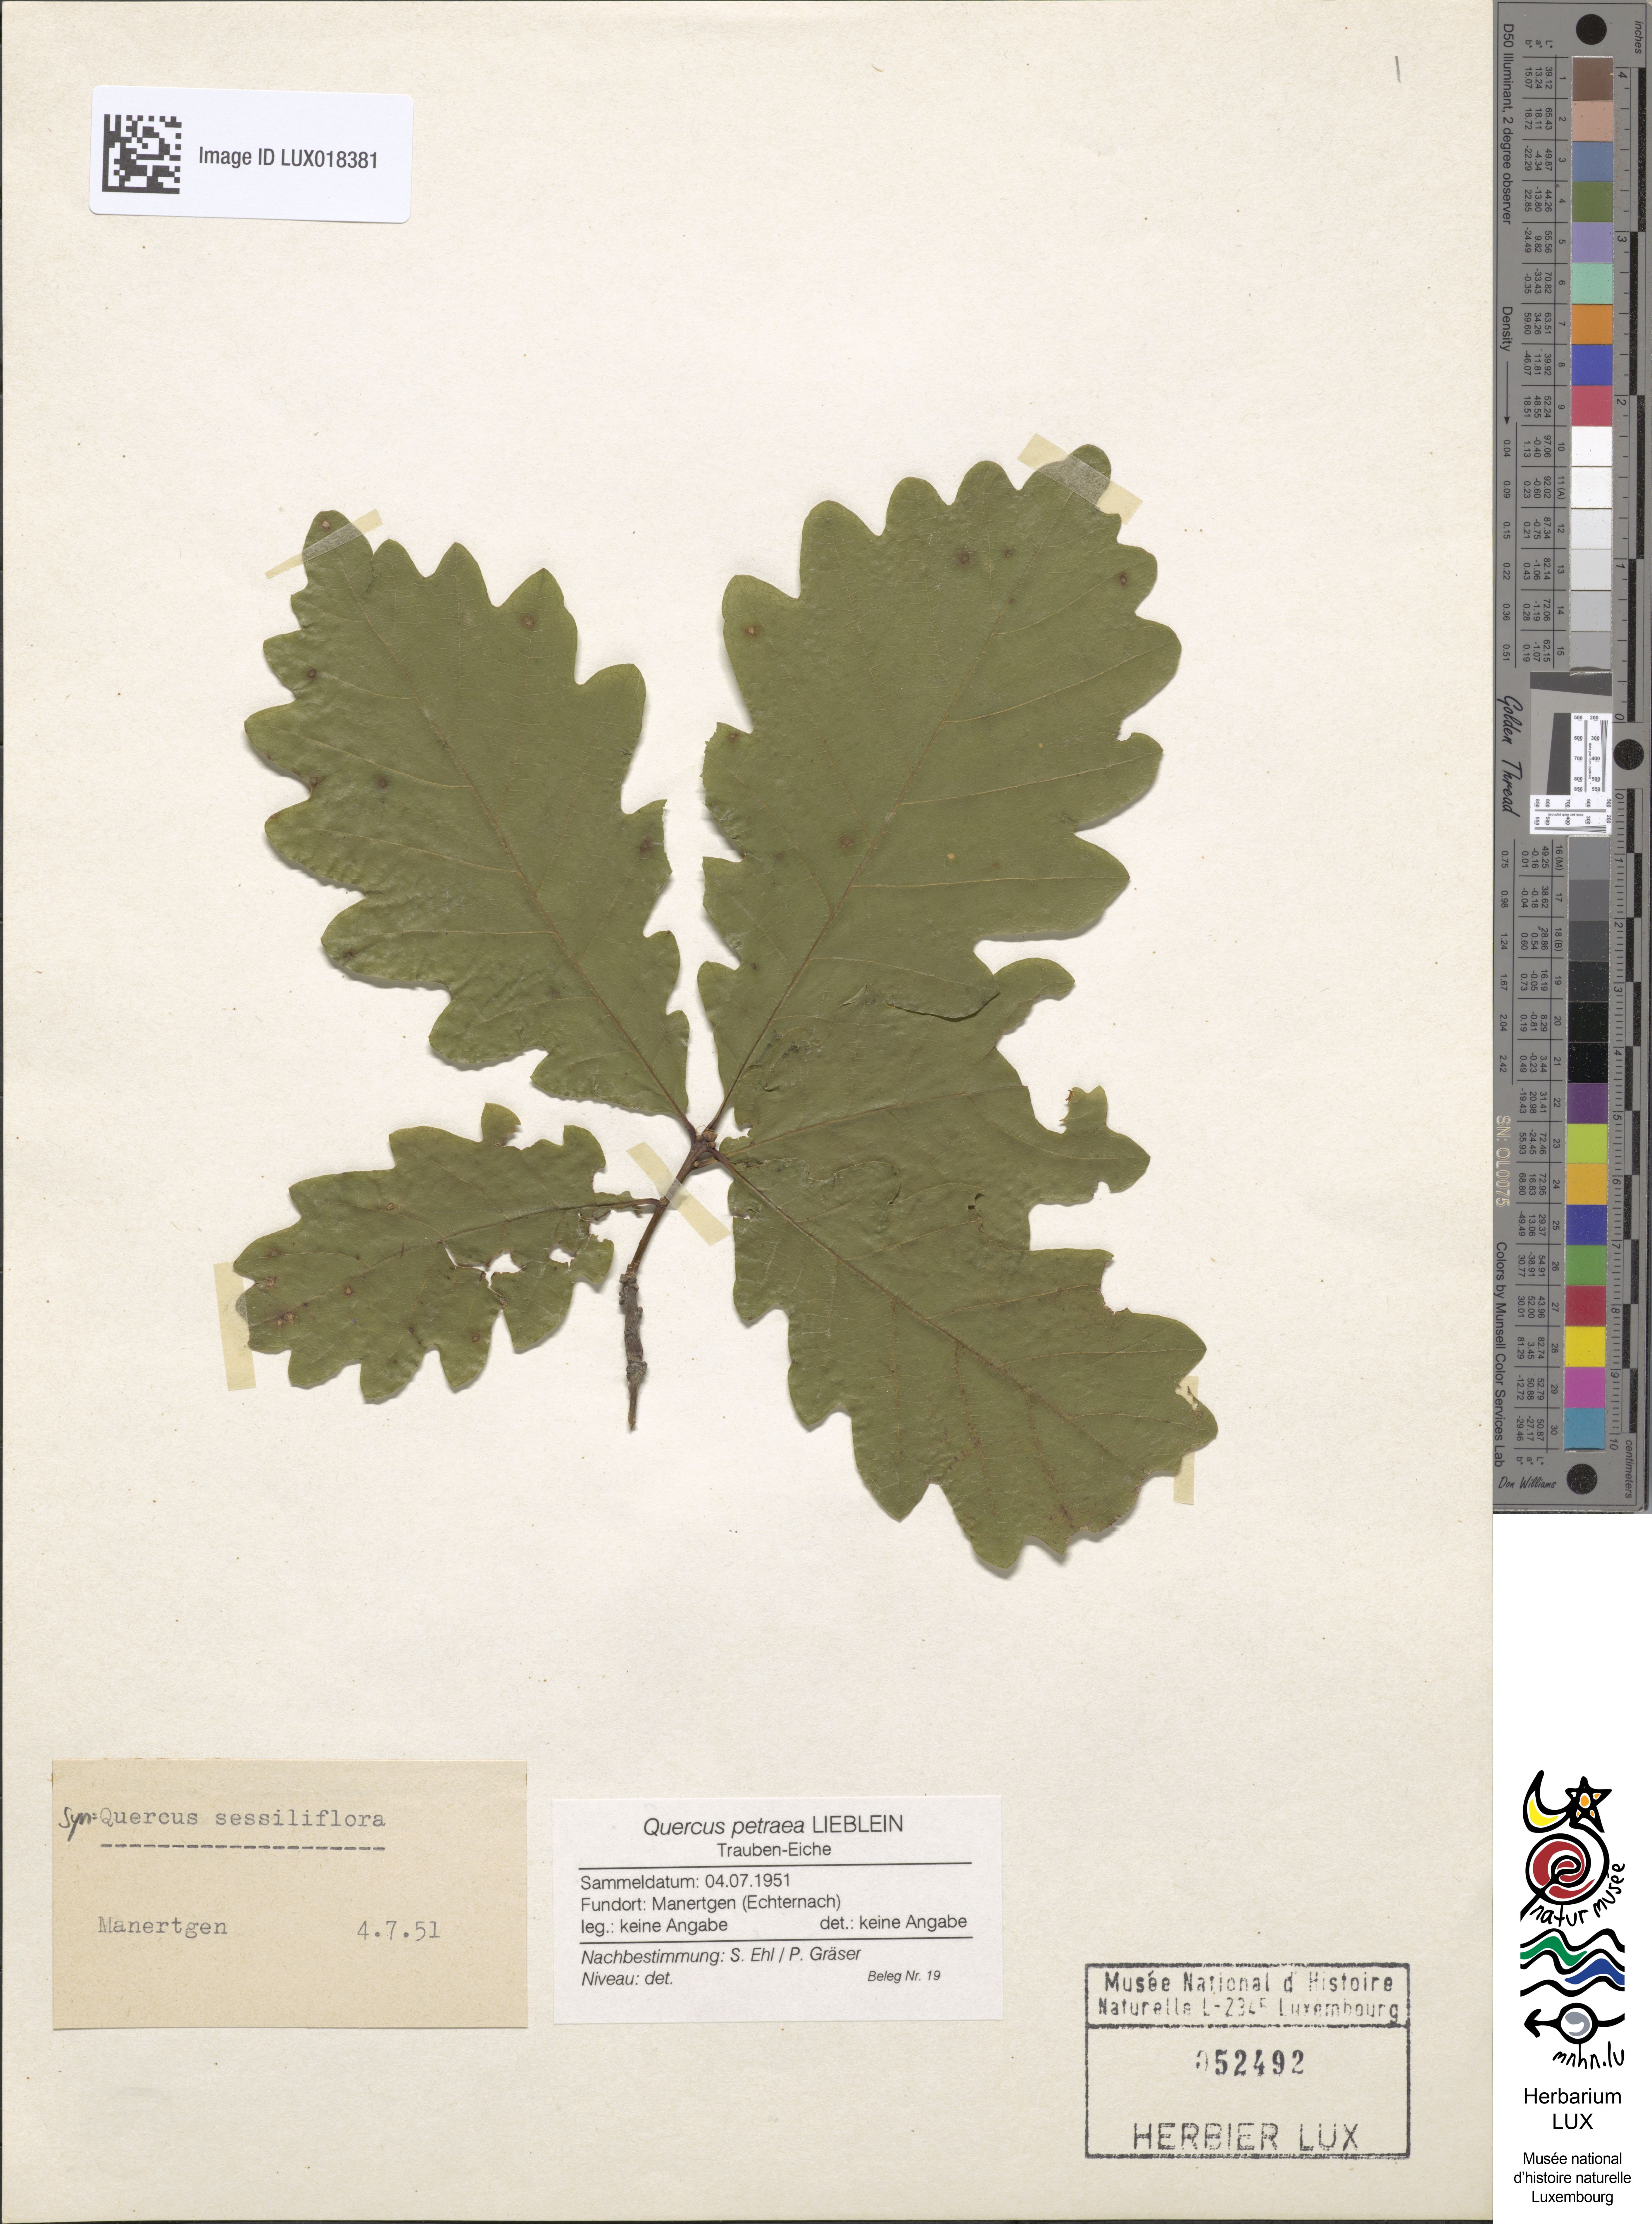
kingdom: Plantae
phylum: Tracheophyta
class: Magnoliopsida
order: Fagales
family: Fagaceae
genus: Quercus
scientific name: Quercus petraea
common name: Sessile oak
